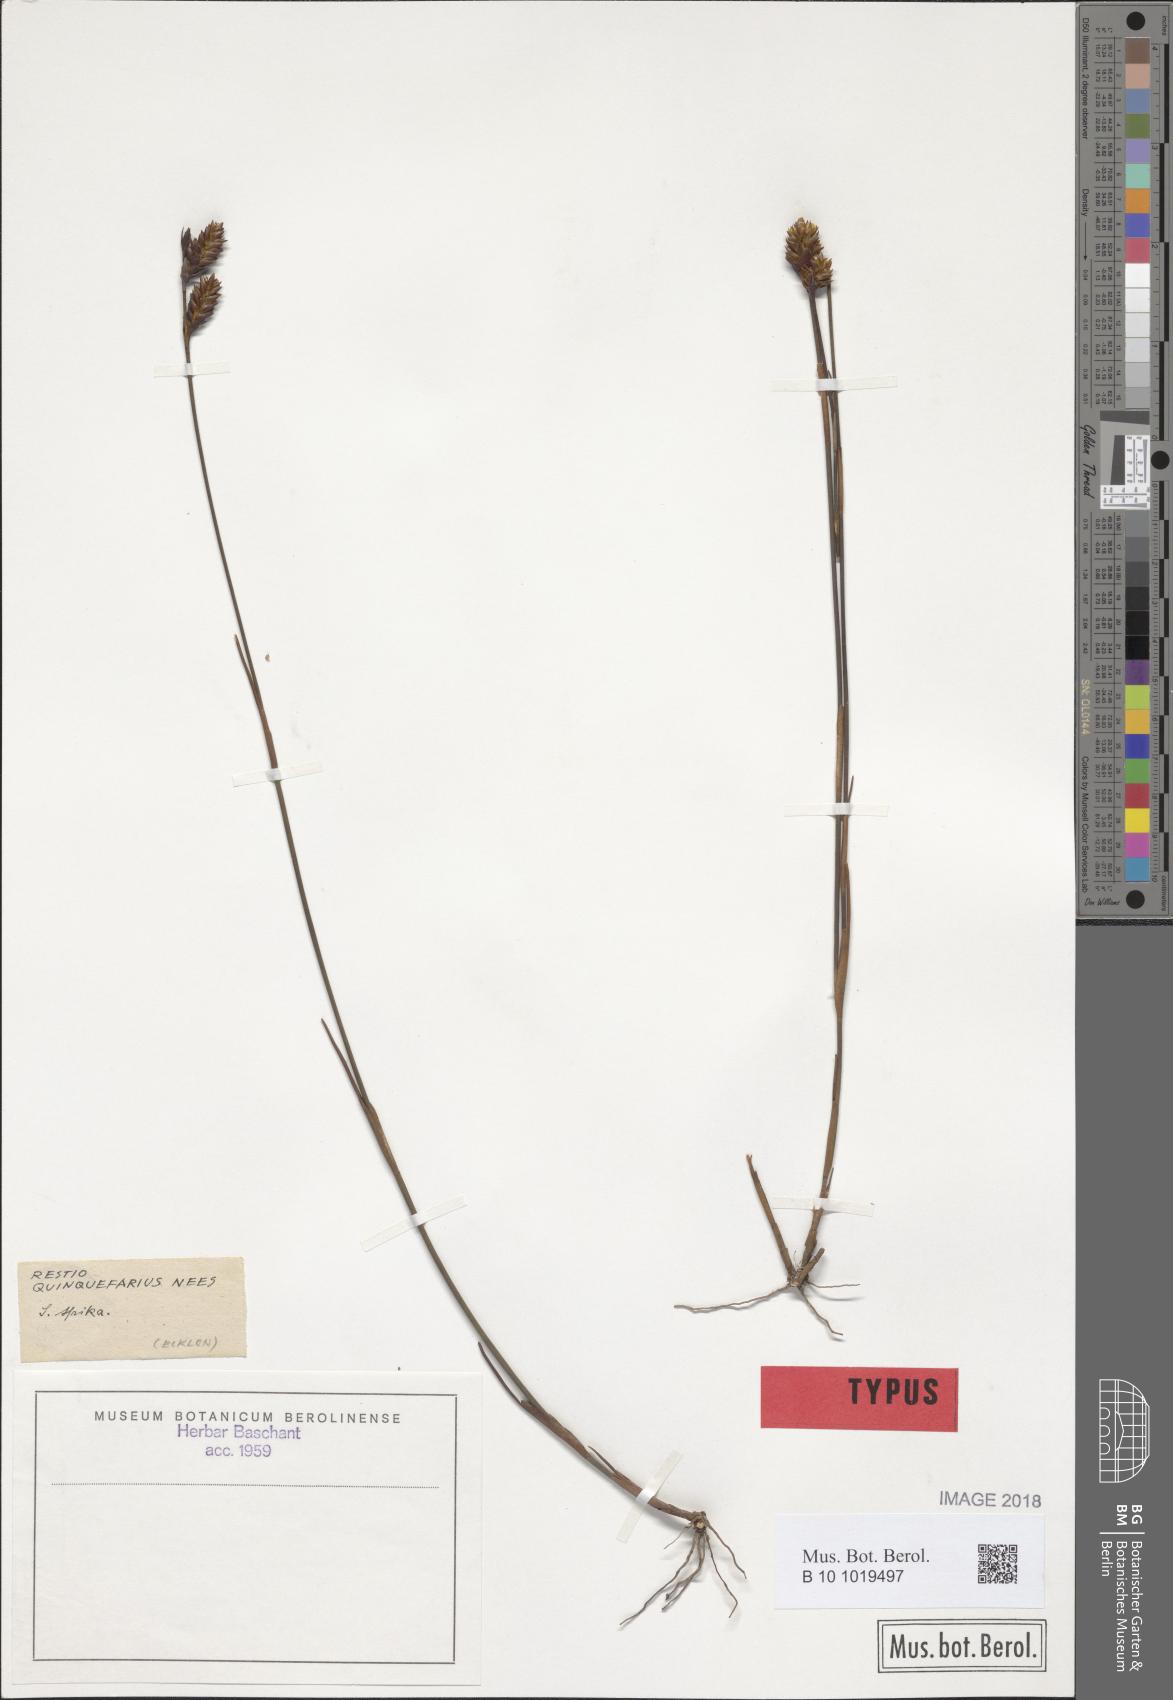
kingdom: Plantae
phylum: Tracheophyta
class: Liliopsida
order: Poales
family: Restionaceae
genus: Restio
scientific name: Restio quinquefarius
